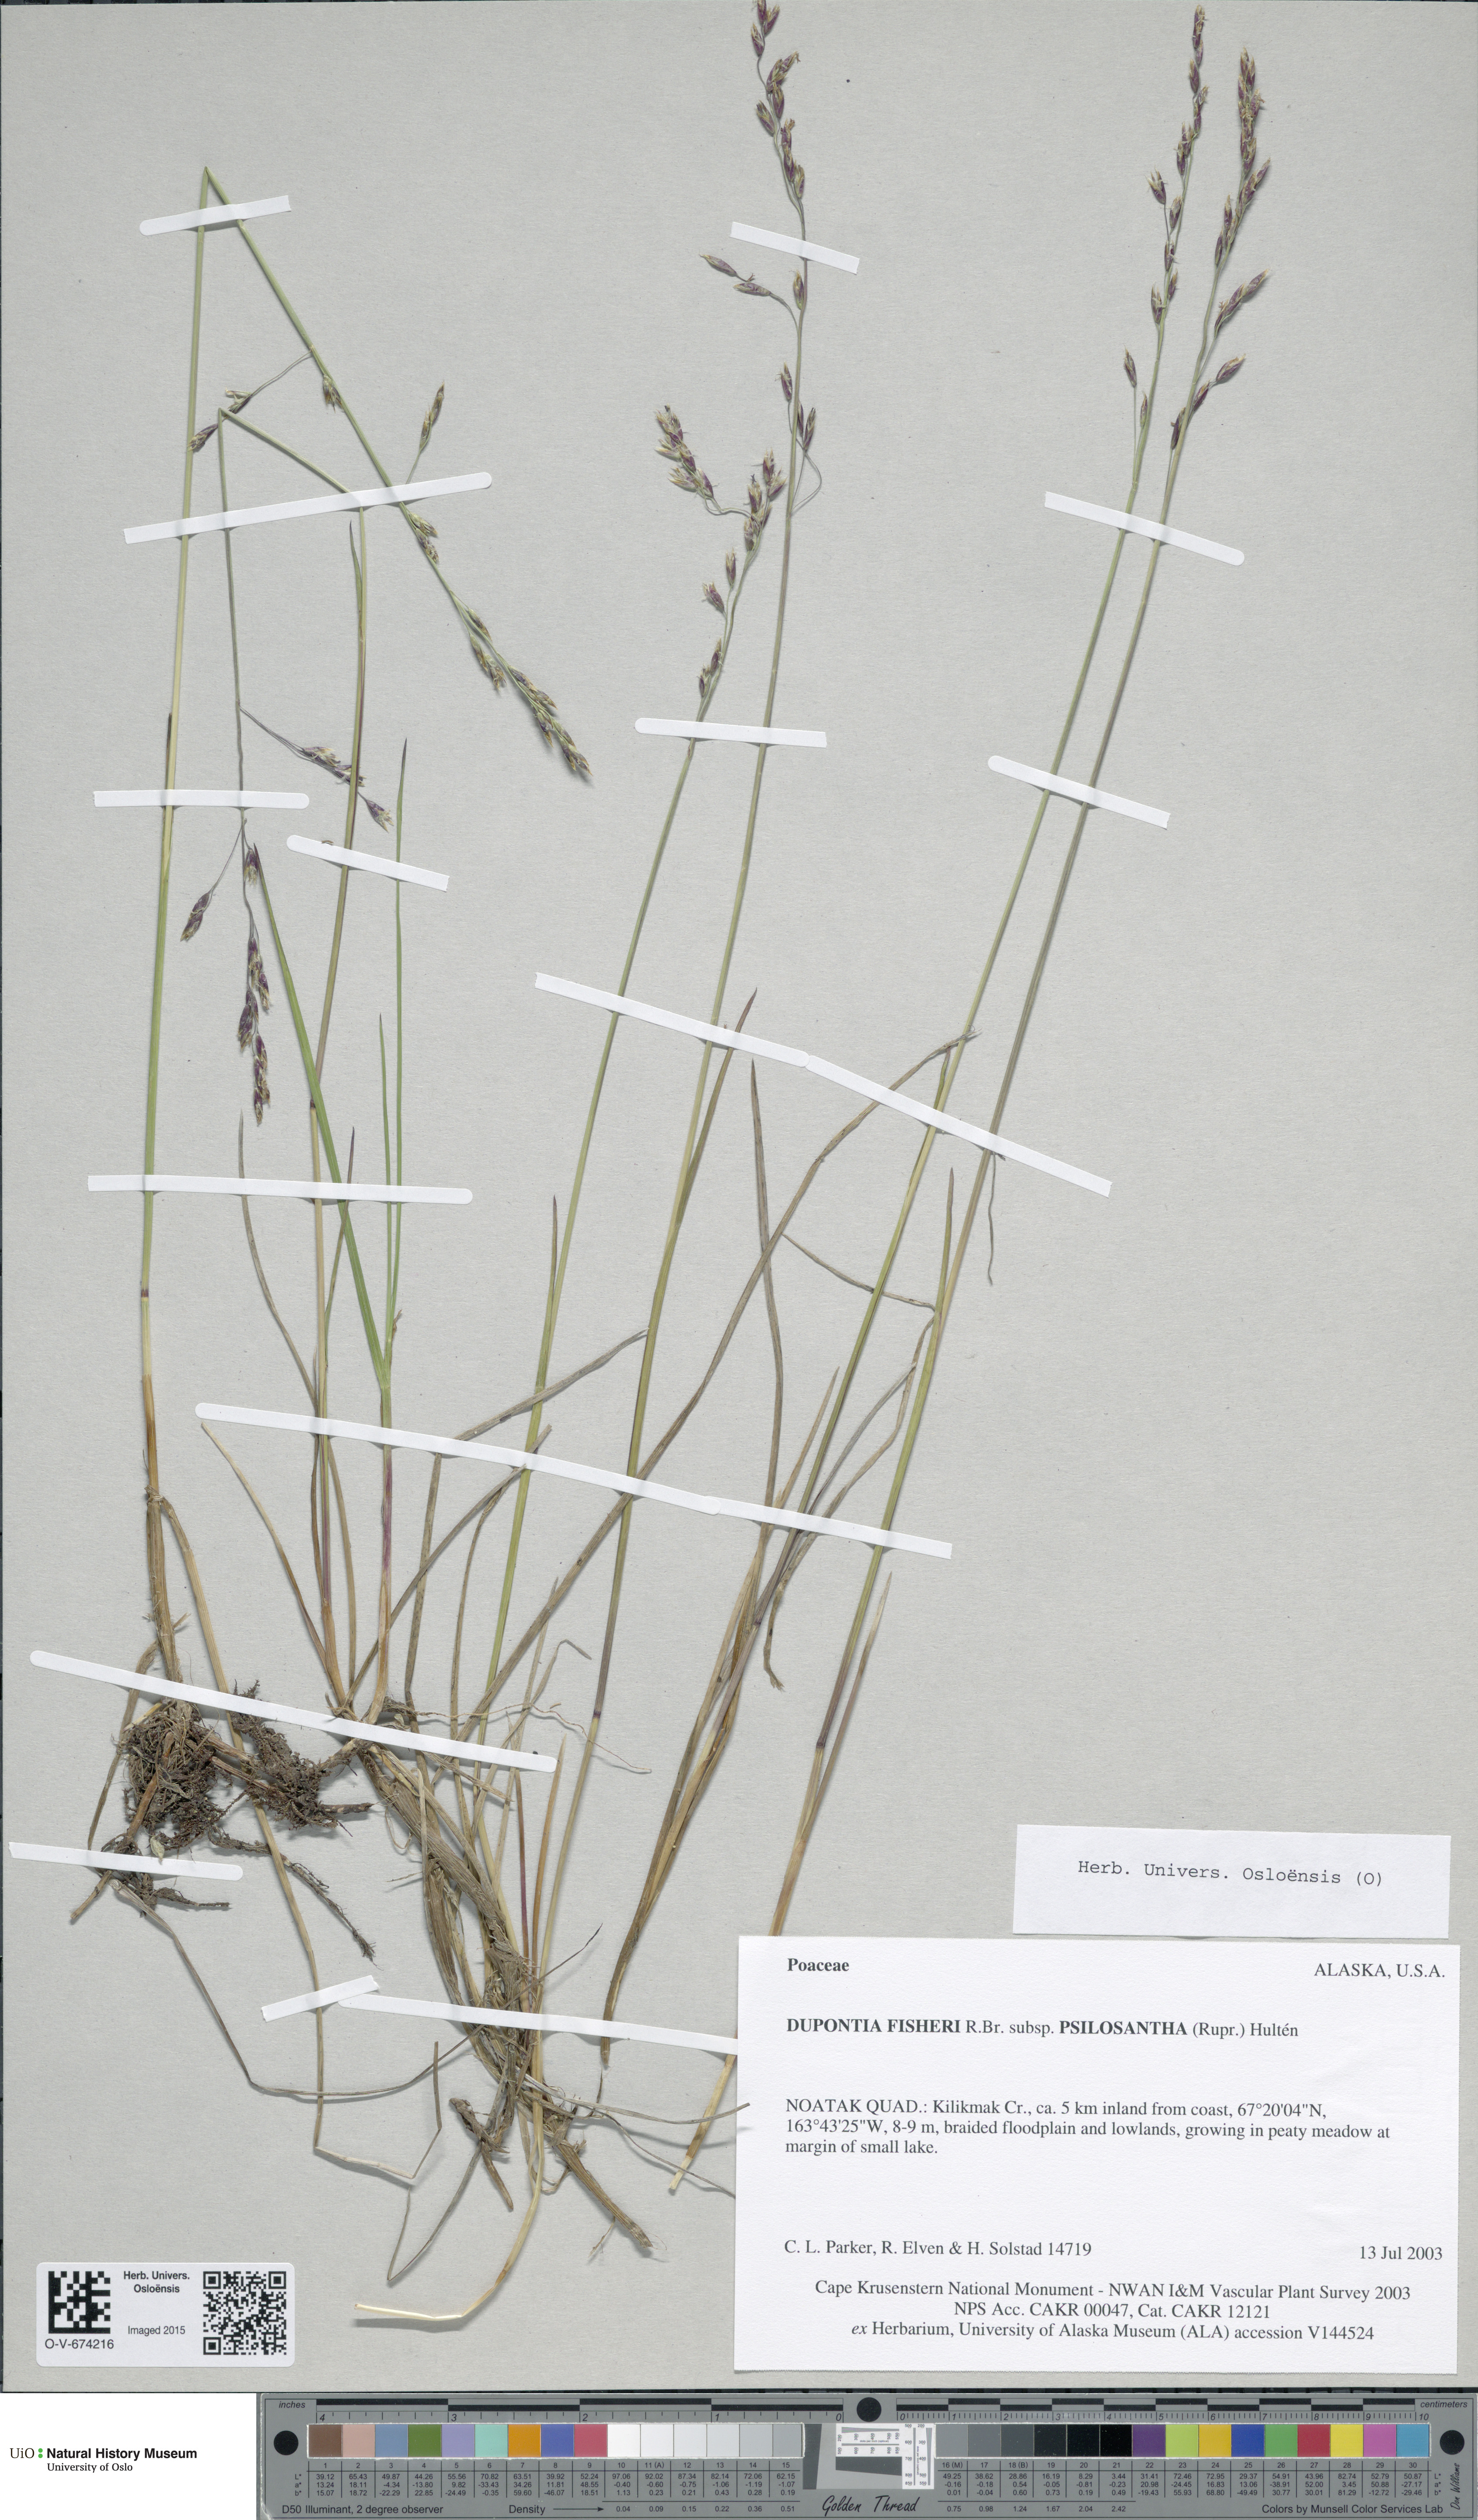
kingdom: Plantae
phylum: Tracheophyta
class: Liliopsida
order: Poales
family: Poaceae
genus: Dupontia
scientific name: Dupontia fisheri
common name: Tundra grass
